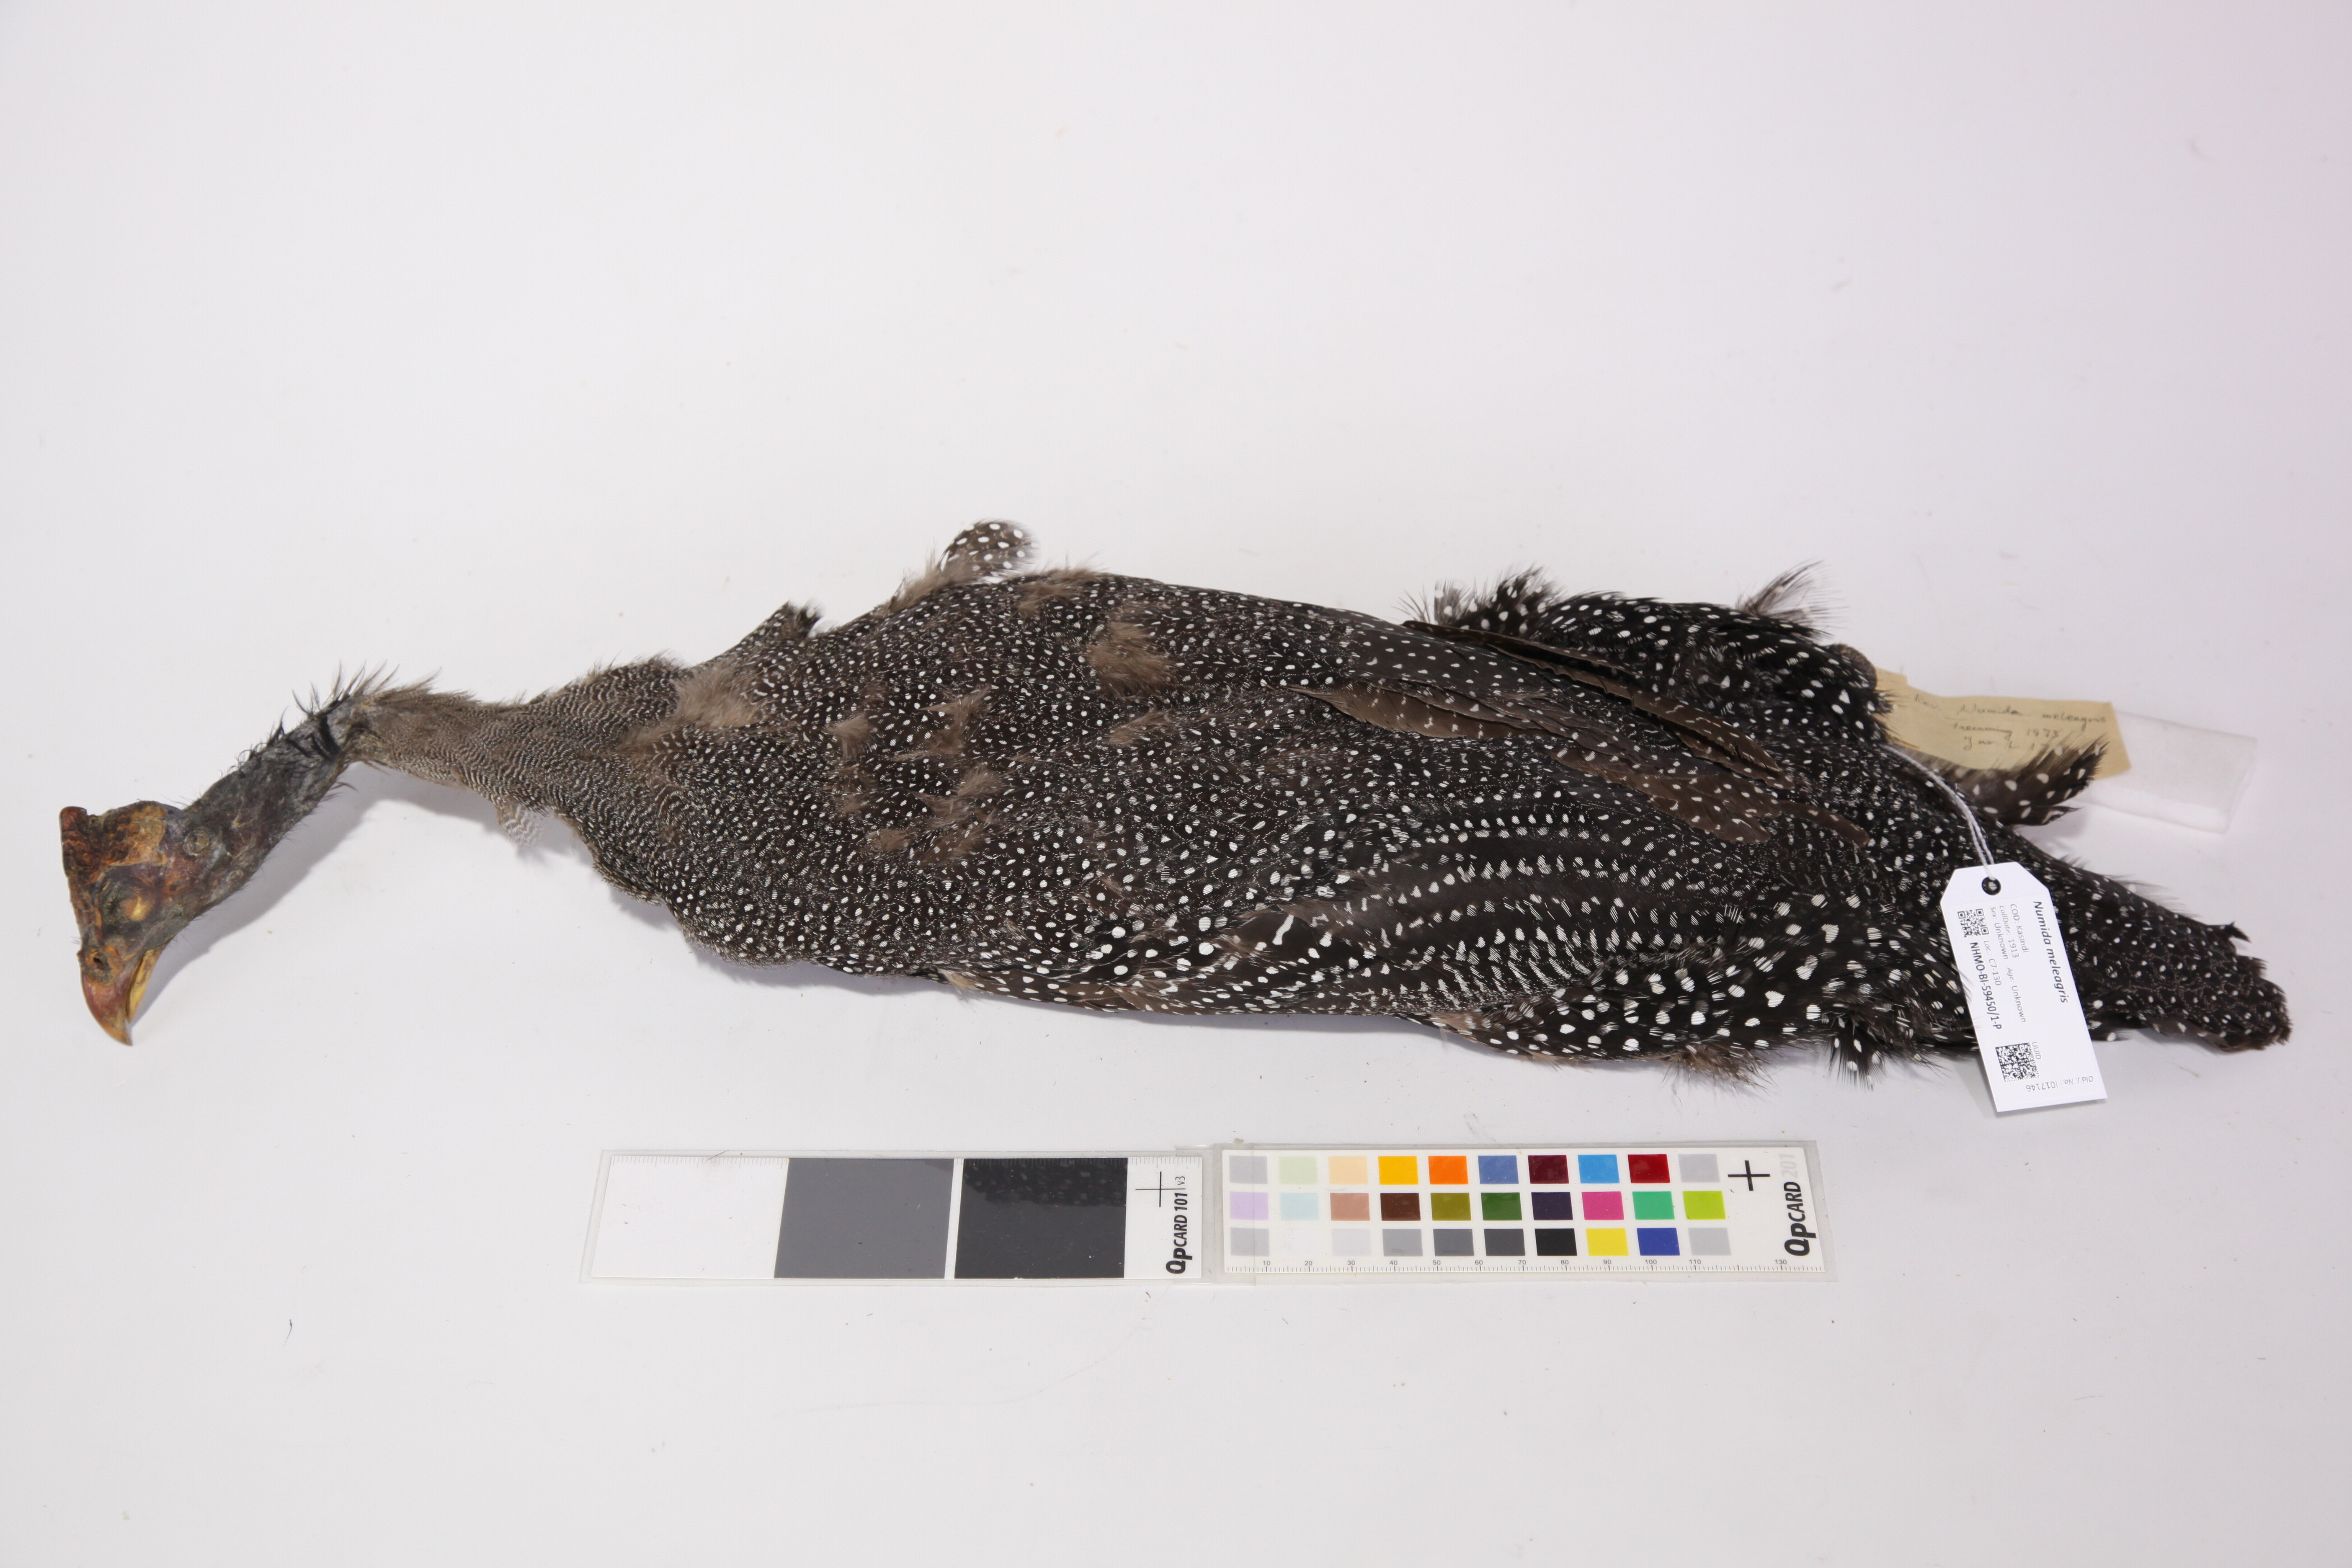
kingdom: Animalia
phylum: Chordata
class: Aves
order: Galliformes
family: Numididae
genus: Numida
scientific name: Numida meleagris
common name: Helmeted guineafowl
